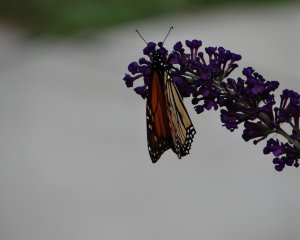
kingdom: Animalia
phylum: Arthropoda
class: Insecta
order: Lepidoptera
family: Nymphalidae
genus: Danaus
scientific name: Danaus plexippus
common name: Monarch
